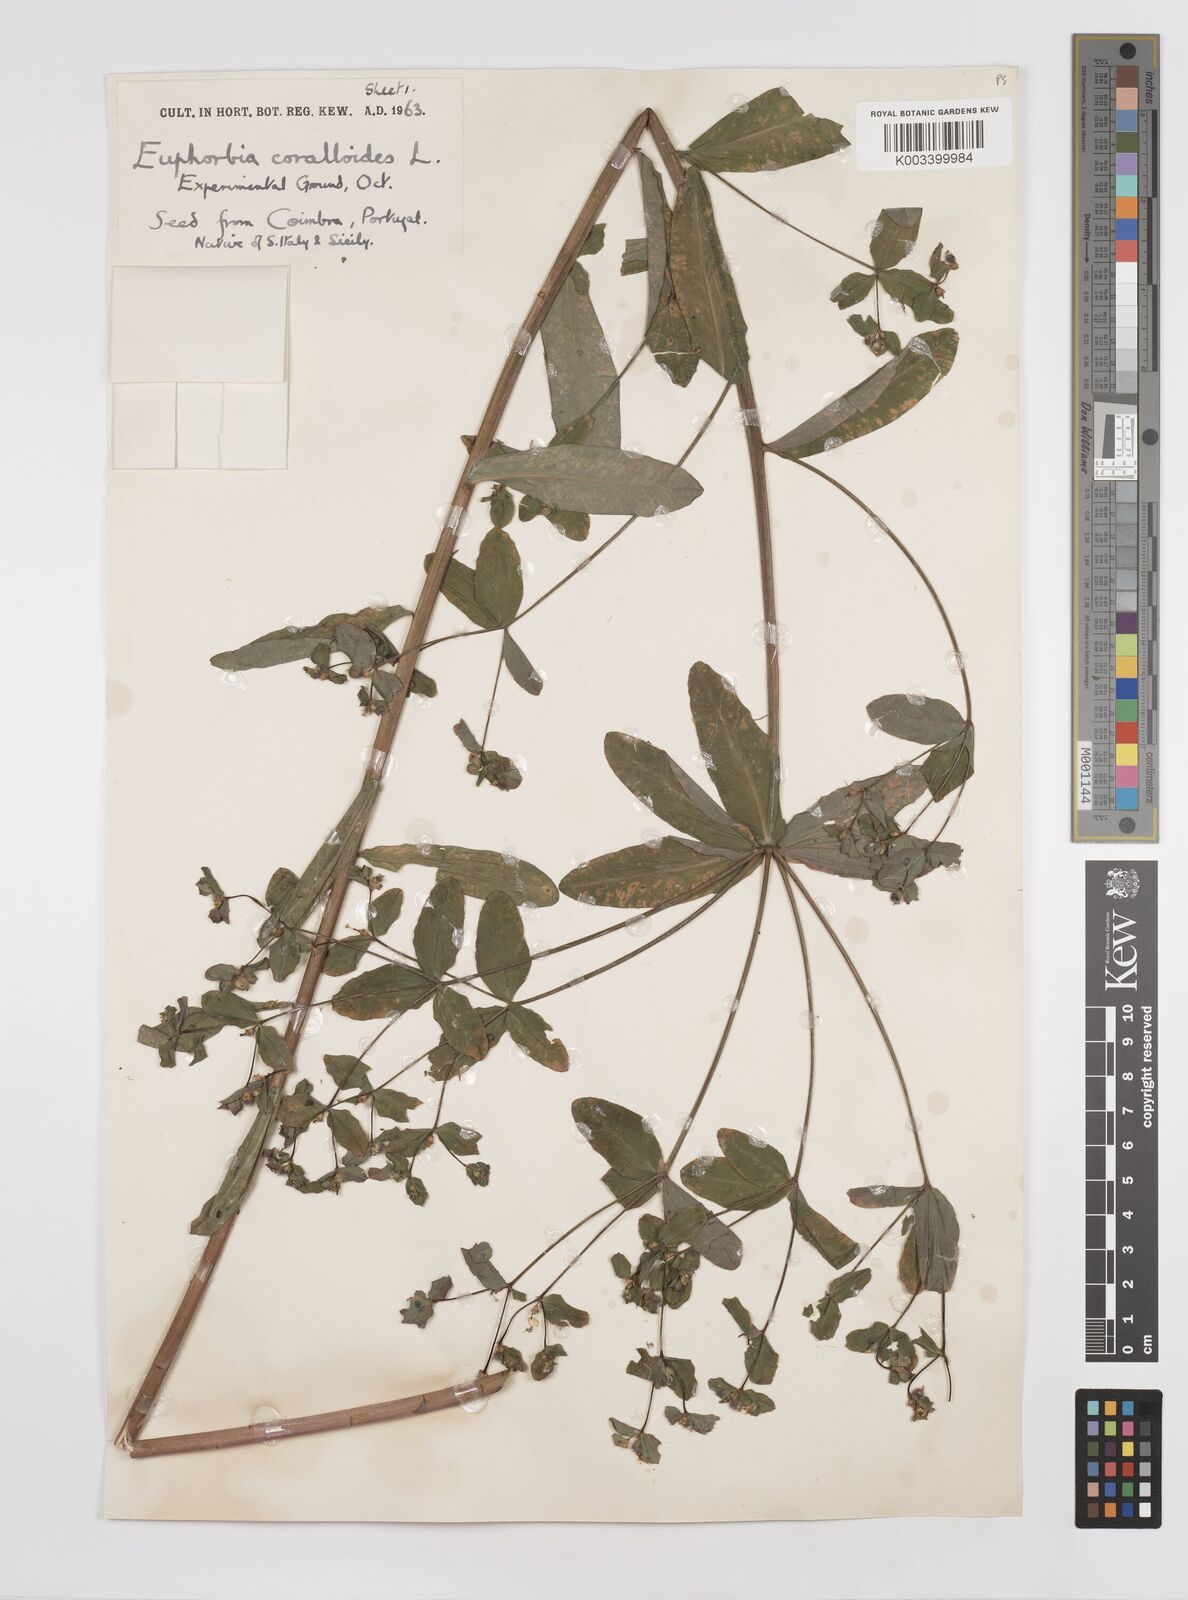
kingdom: Plantae
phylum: Tracheophyta
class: Magnoliopsida
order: Malpighiales
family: Euphorbiaceae
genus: Euphorbia
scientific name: Euphorbia corallioides
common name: Coral spurge
